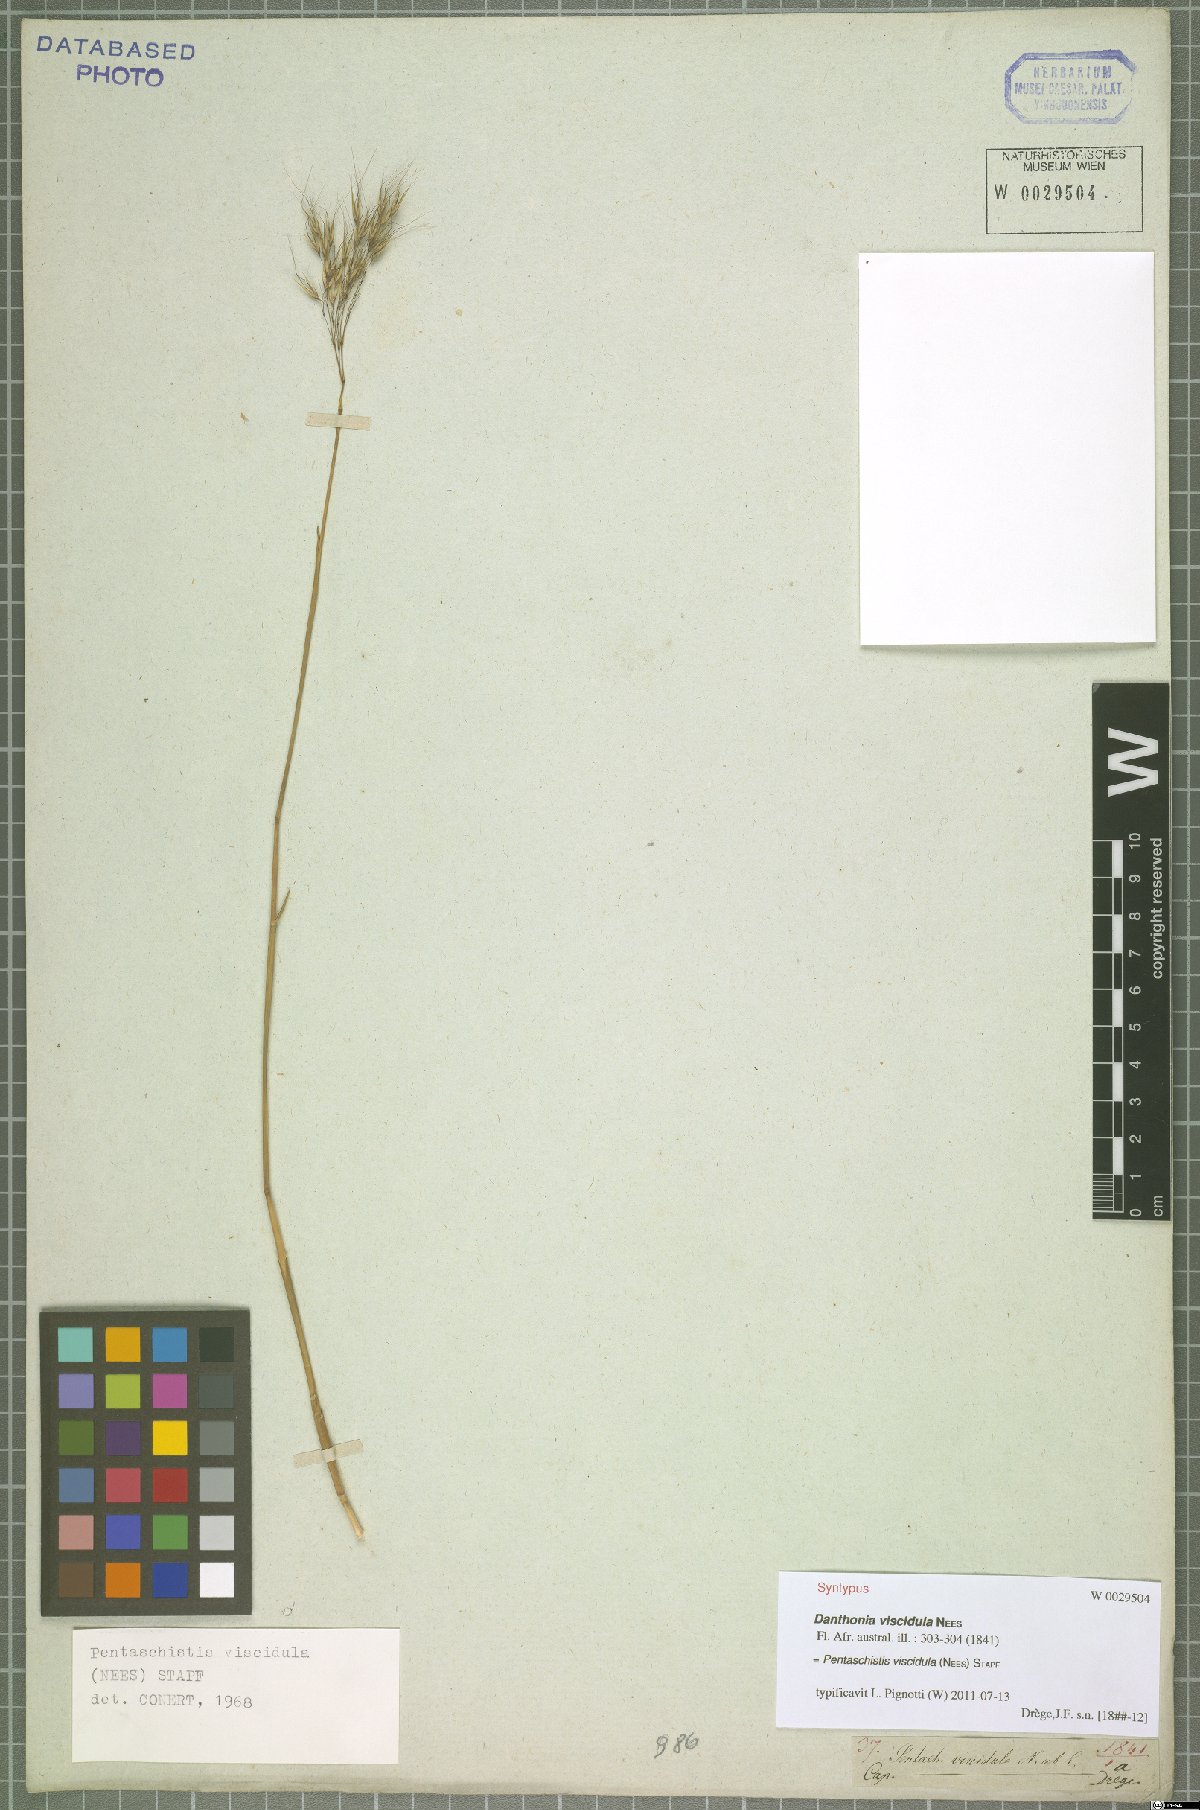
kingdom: Plantae
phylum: Tracheophyta
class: Liliopsida
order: Poales
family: Poaceae
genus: Pentameris
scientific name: Pentameris viscidula
